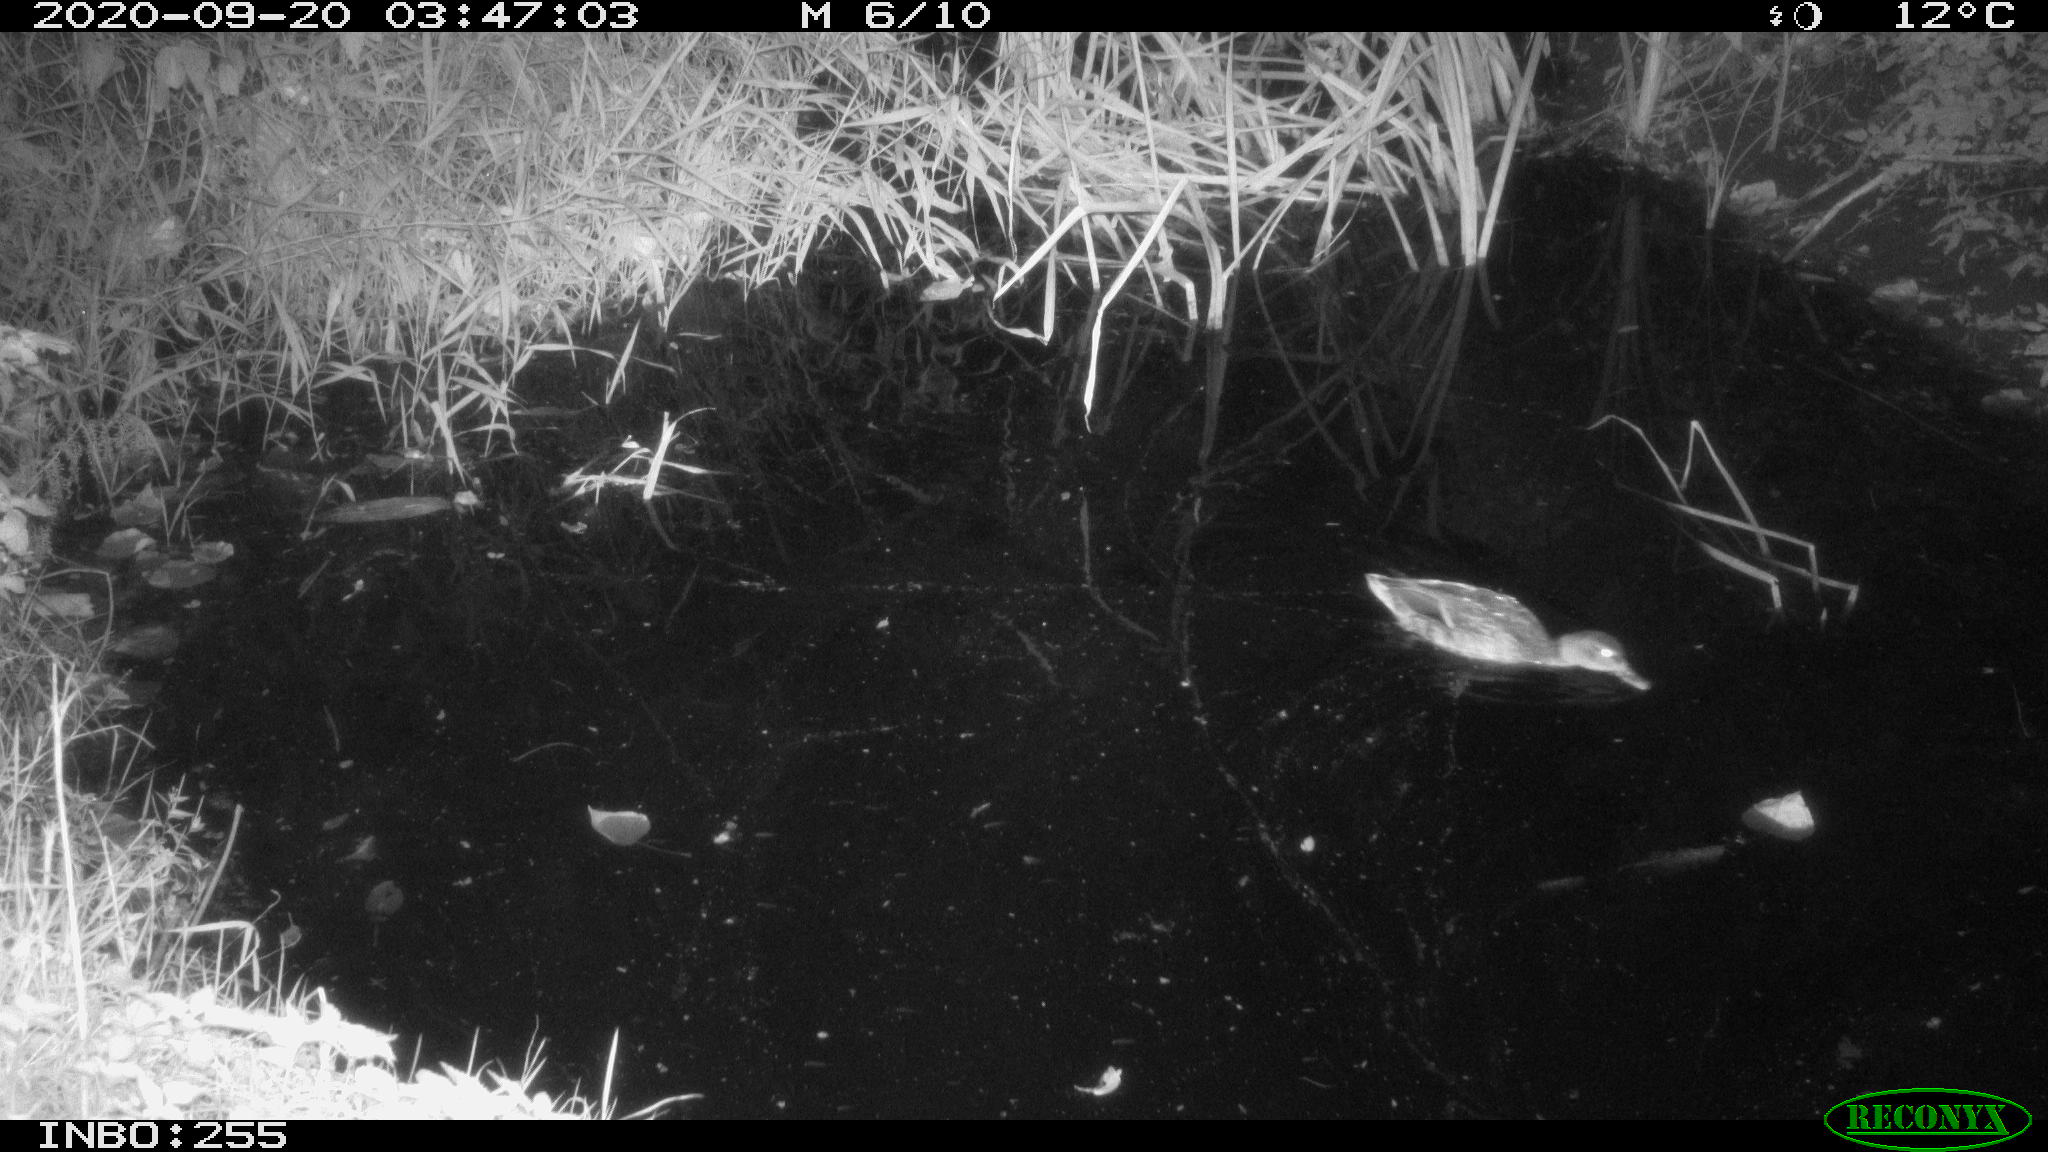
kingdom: Animalia
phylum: Chordata
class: Aves
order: Anseriformes
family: Anatidae
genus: Anas
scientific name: Anas platyrhynchos
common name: Mallard
